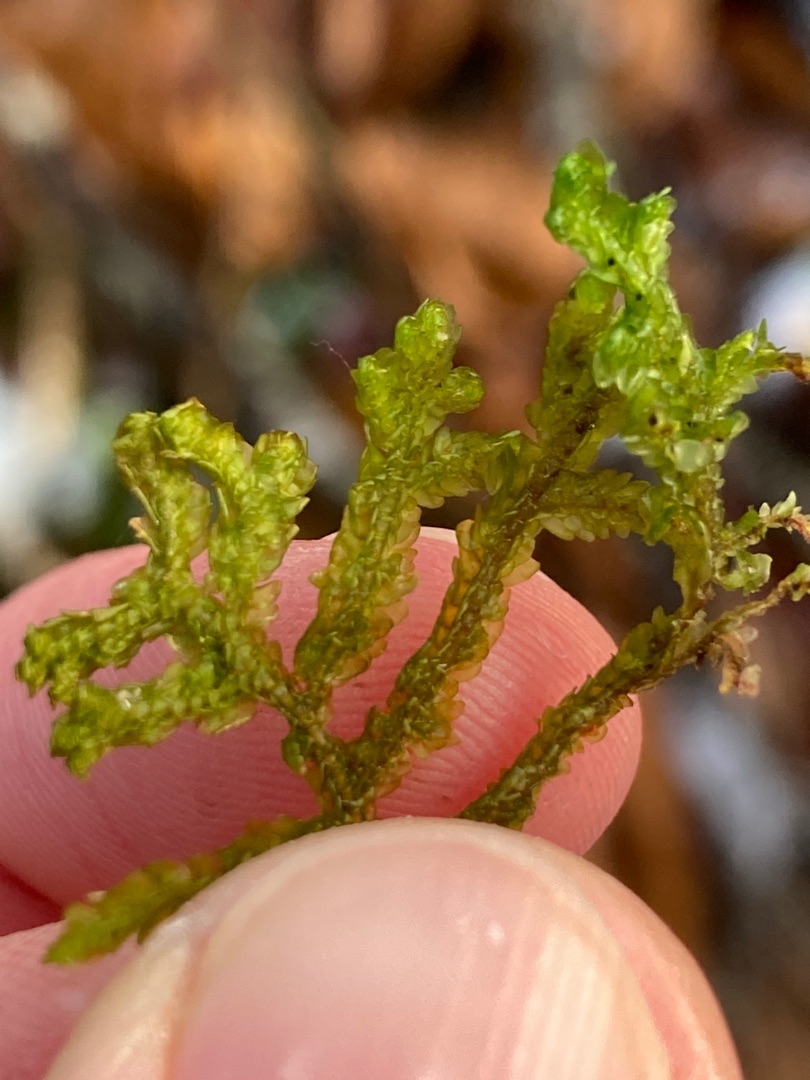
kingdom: Plantae
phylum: Marchantiophyta
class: Jungermanniopsida
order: Porellales
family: Porellaceae
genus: Porella
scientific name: Porella platyphylla
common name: Almindelig skælryg
